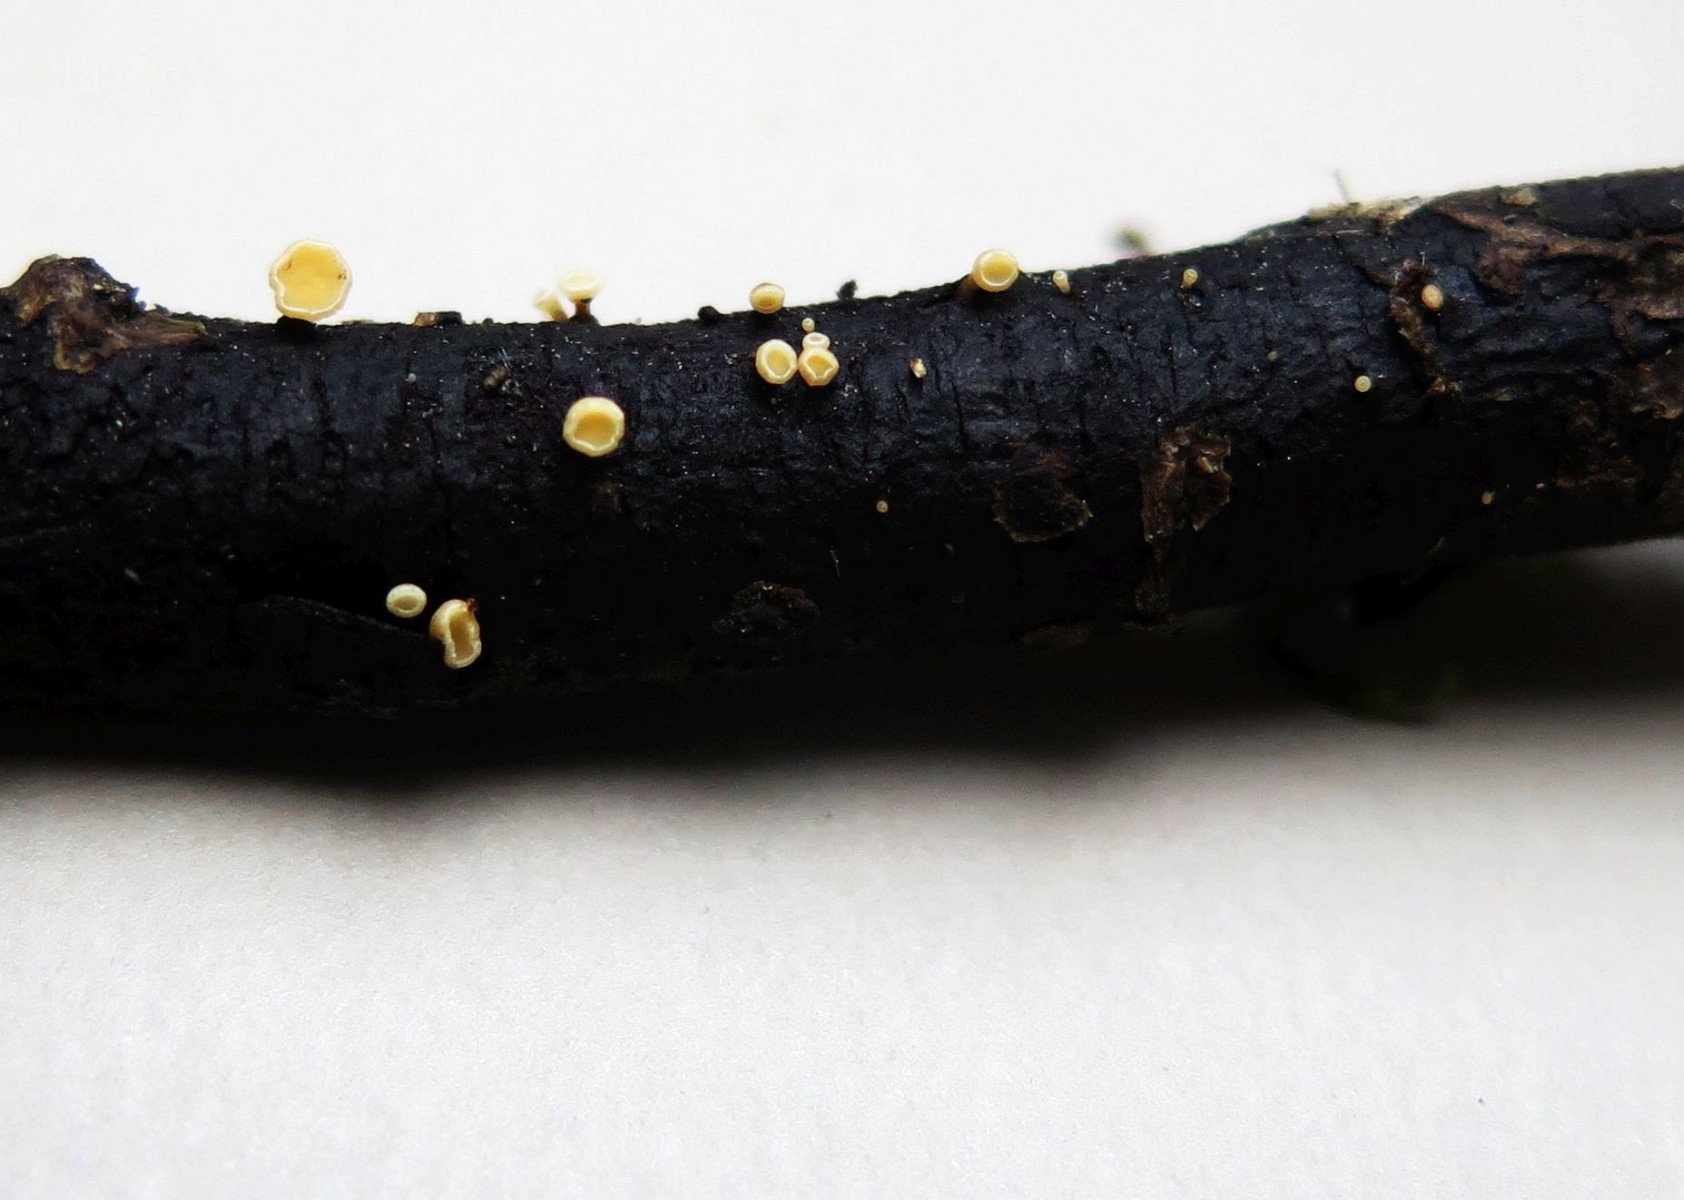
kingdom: Fungi
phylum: Ascomycota
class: Leotiomycetes
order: Helotiales
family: Helotiaceae
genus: Hymenoscyphus
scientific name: Hymenoscyphus
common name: stilkskive
